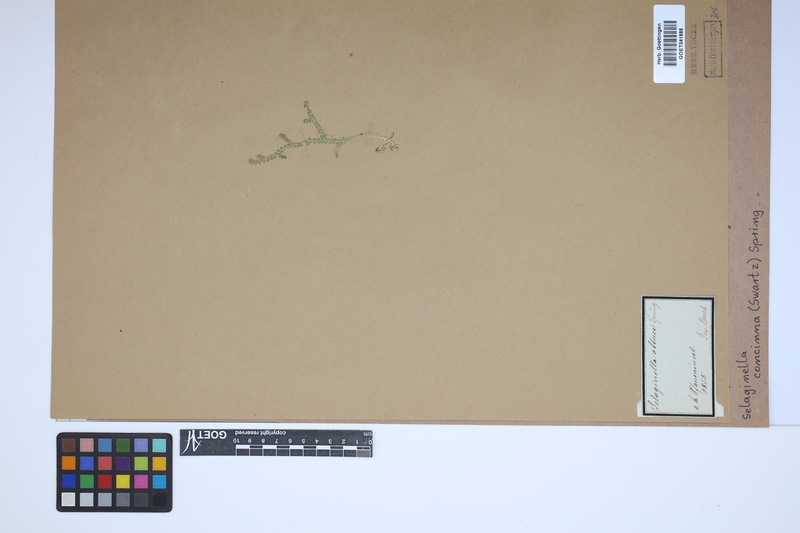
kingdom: Plantae
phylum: Tracheophyta
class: Lycopodiopsida
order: Selaginellales
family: Selaginellaceae
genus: Selaginella
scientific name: Selaginella concinna
